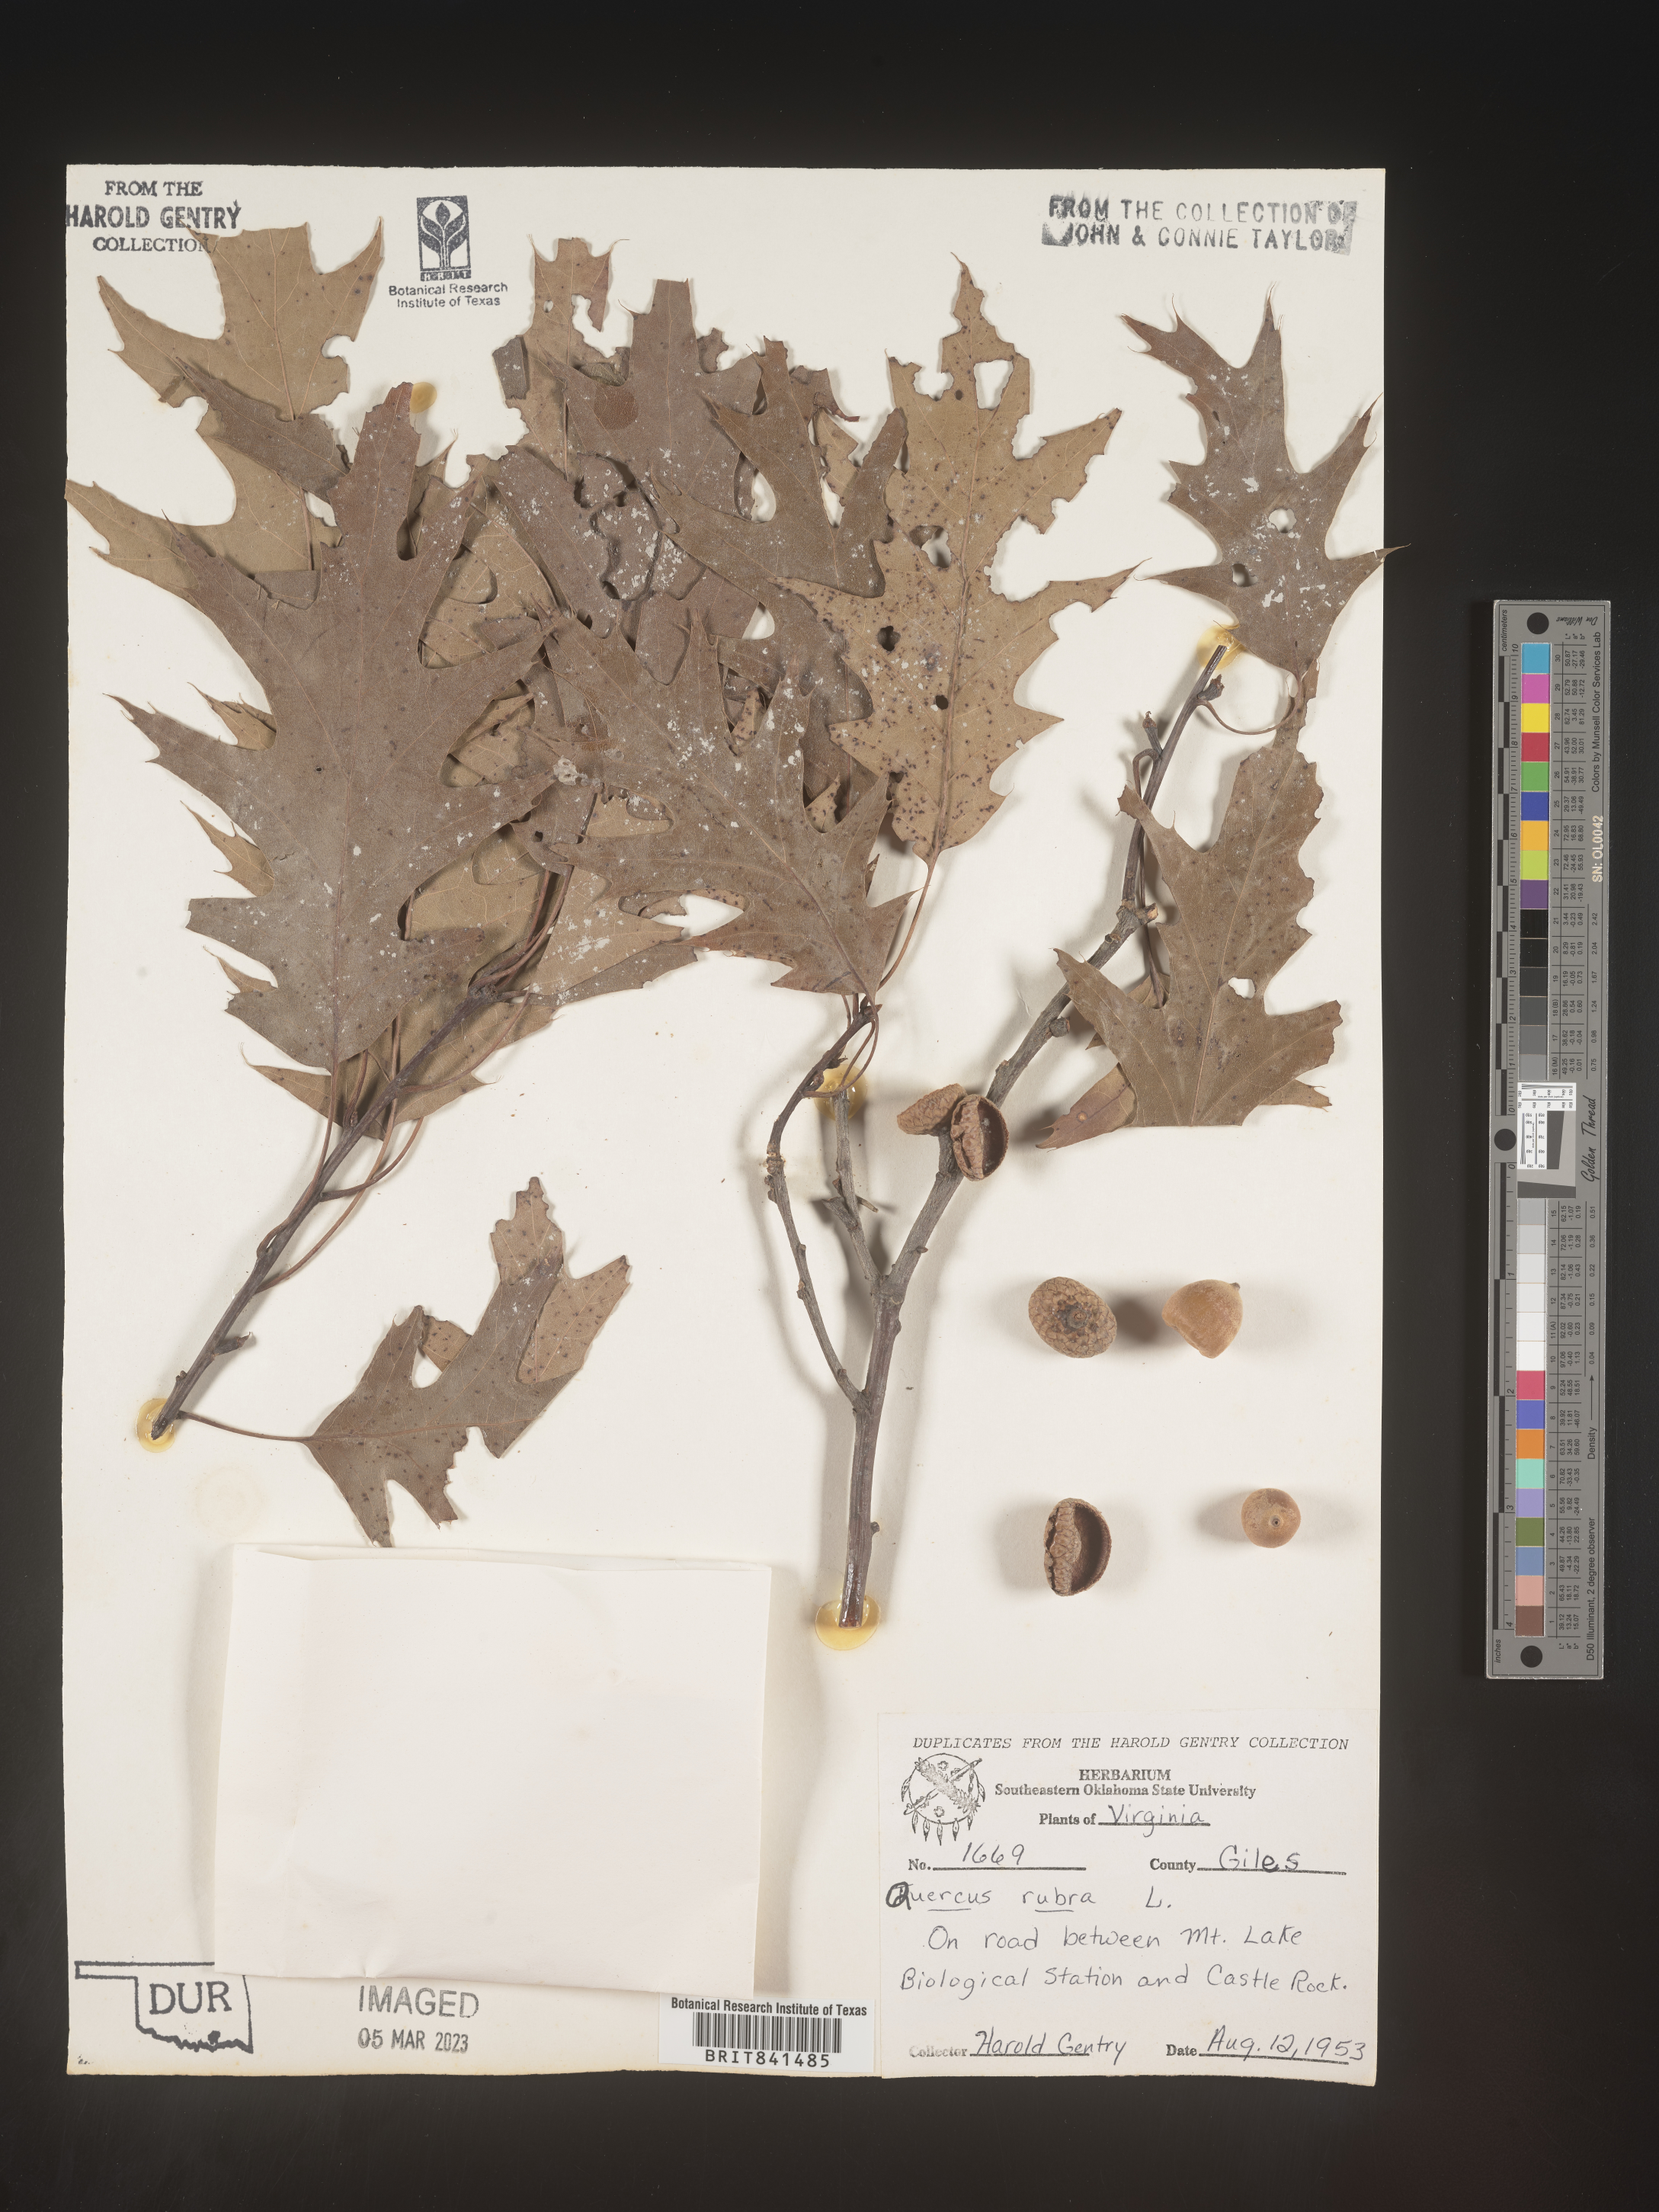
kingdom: Plantae
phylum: Tracheophyta
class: Magnoliopsida
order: Fagales
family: Fagaceae
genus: Quercus
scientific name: Quercus rubra
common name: Red oak
